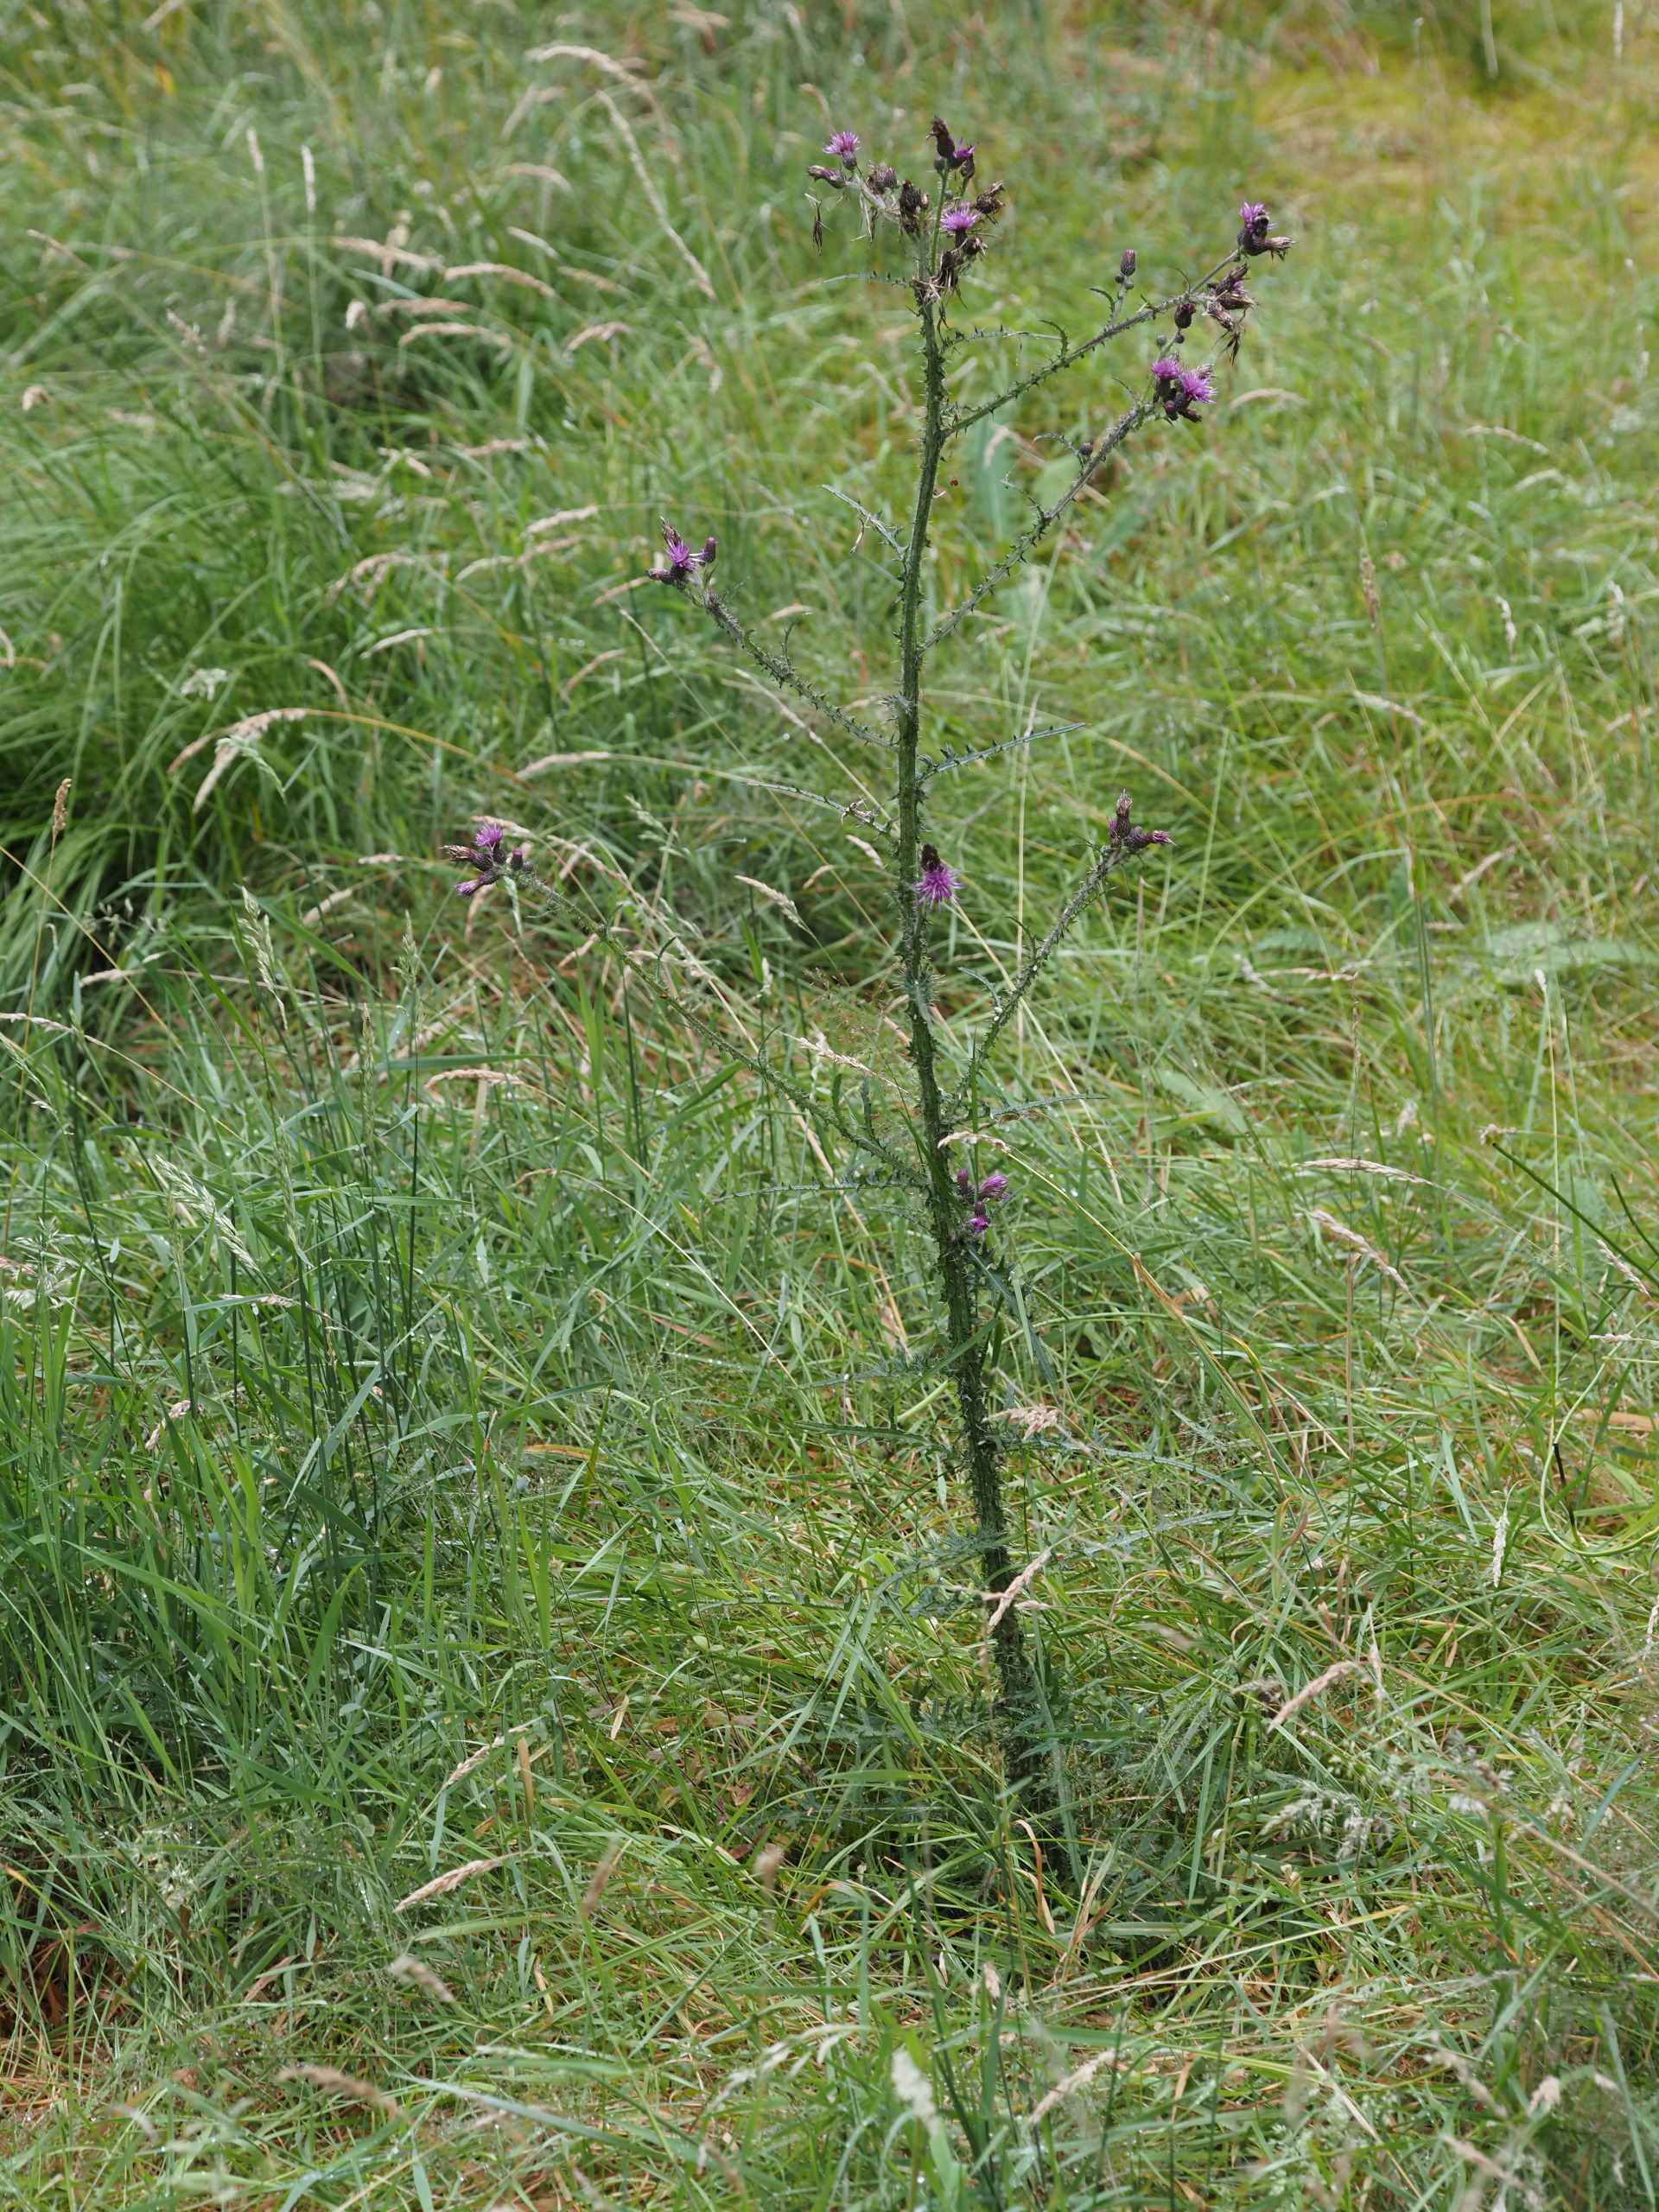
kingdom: Plantae
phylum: Tracheophyta
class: Magnoliopsida
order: Asterales
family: Asteraceae
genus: Cirsium
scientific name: Cirsium palustre
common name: Kær-tidsel
